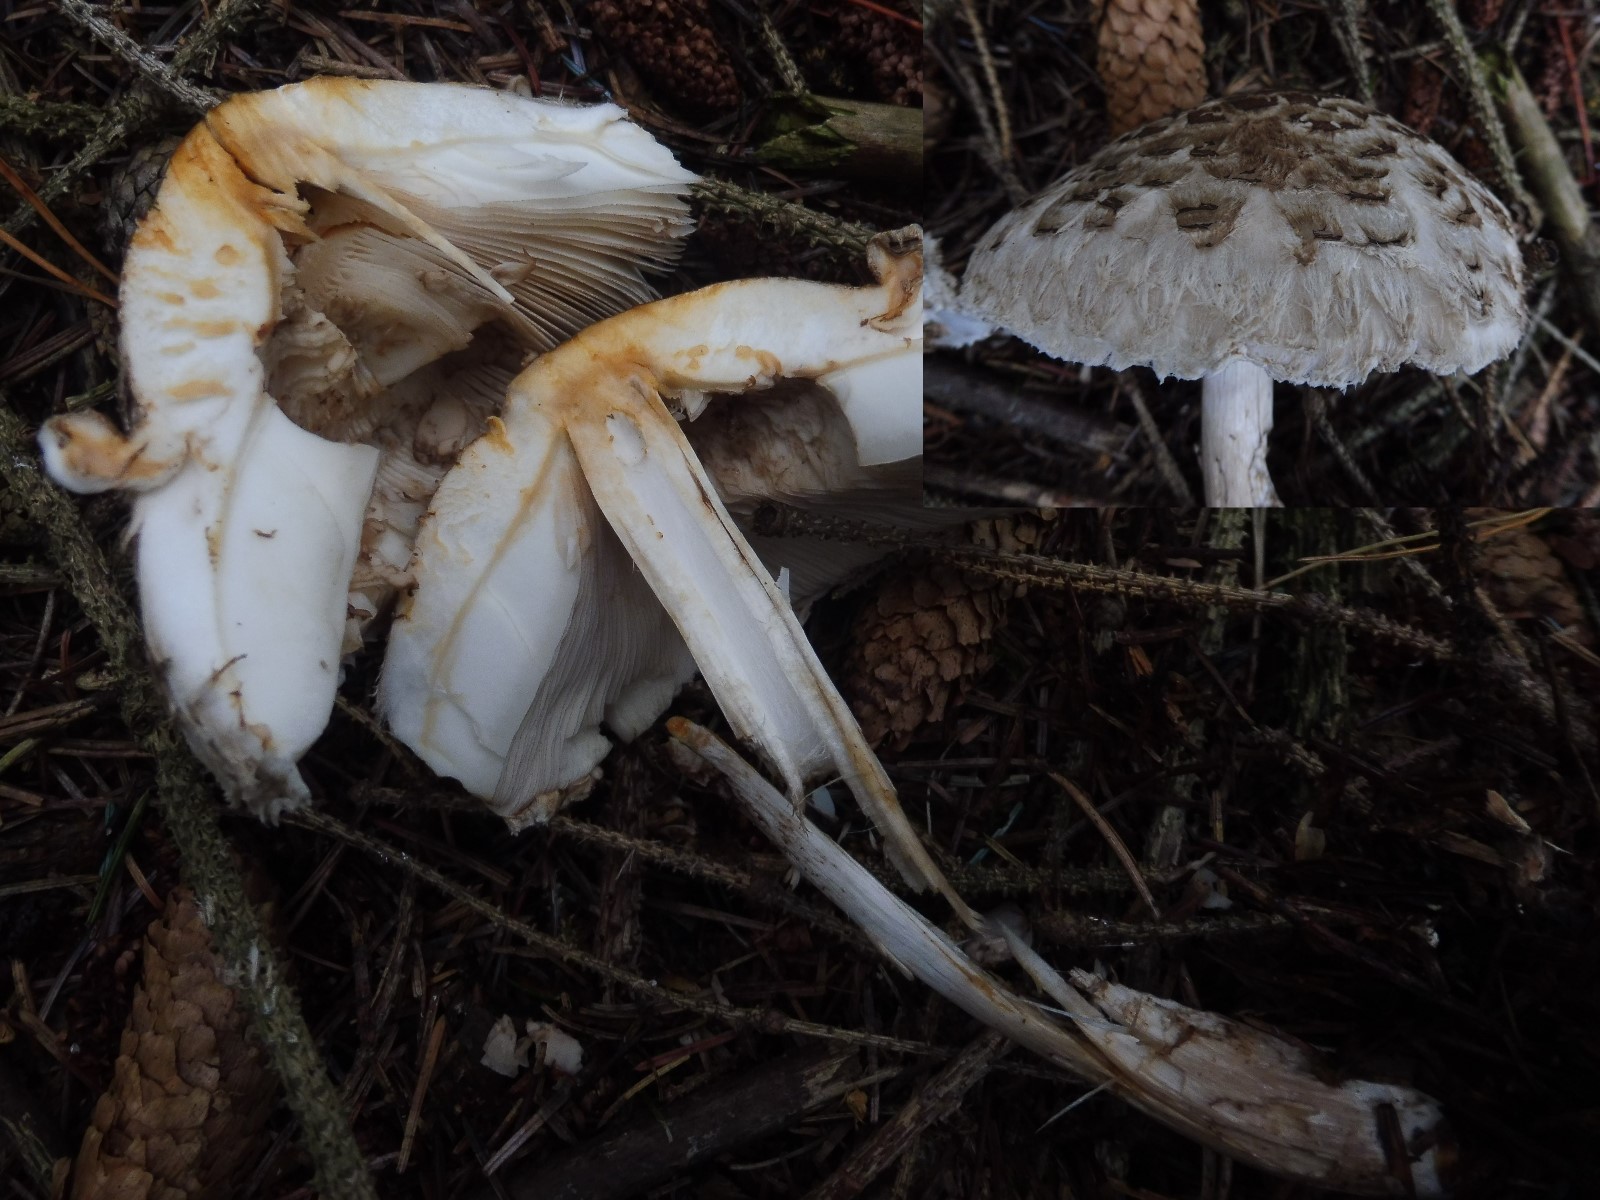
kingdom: Fungi
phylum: Basidiomycota
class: Agaricomycetes
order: Agaricales
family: Agaricaceae
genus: Chlorophyllum
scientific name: Chlorophyllum
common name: rabarberhat
